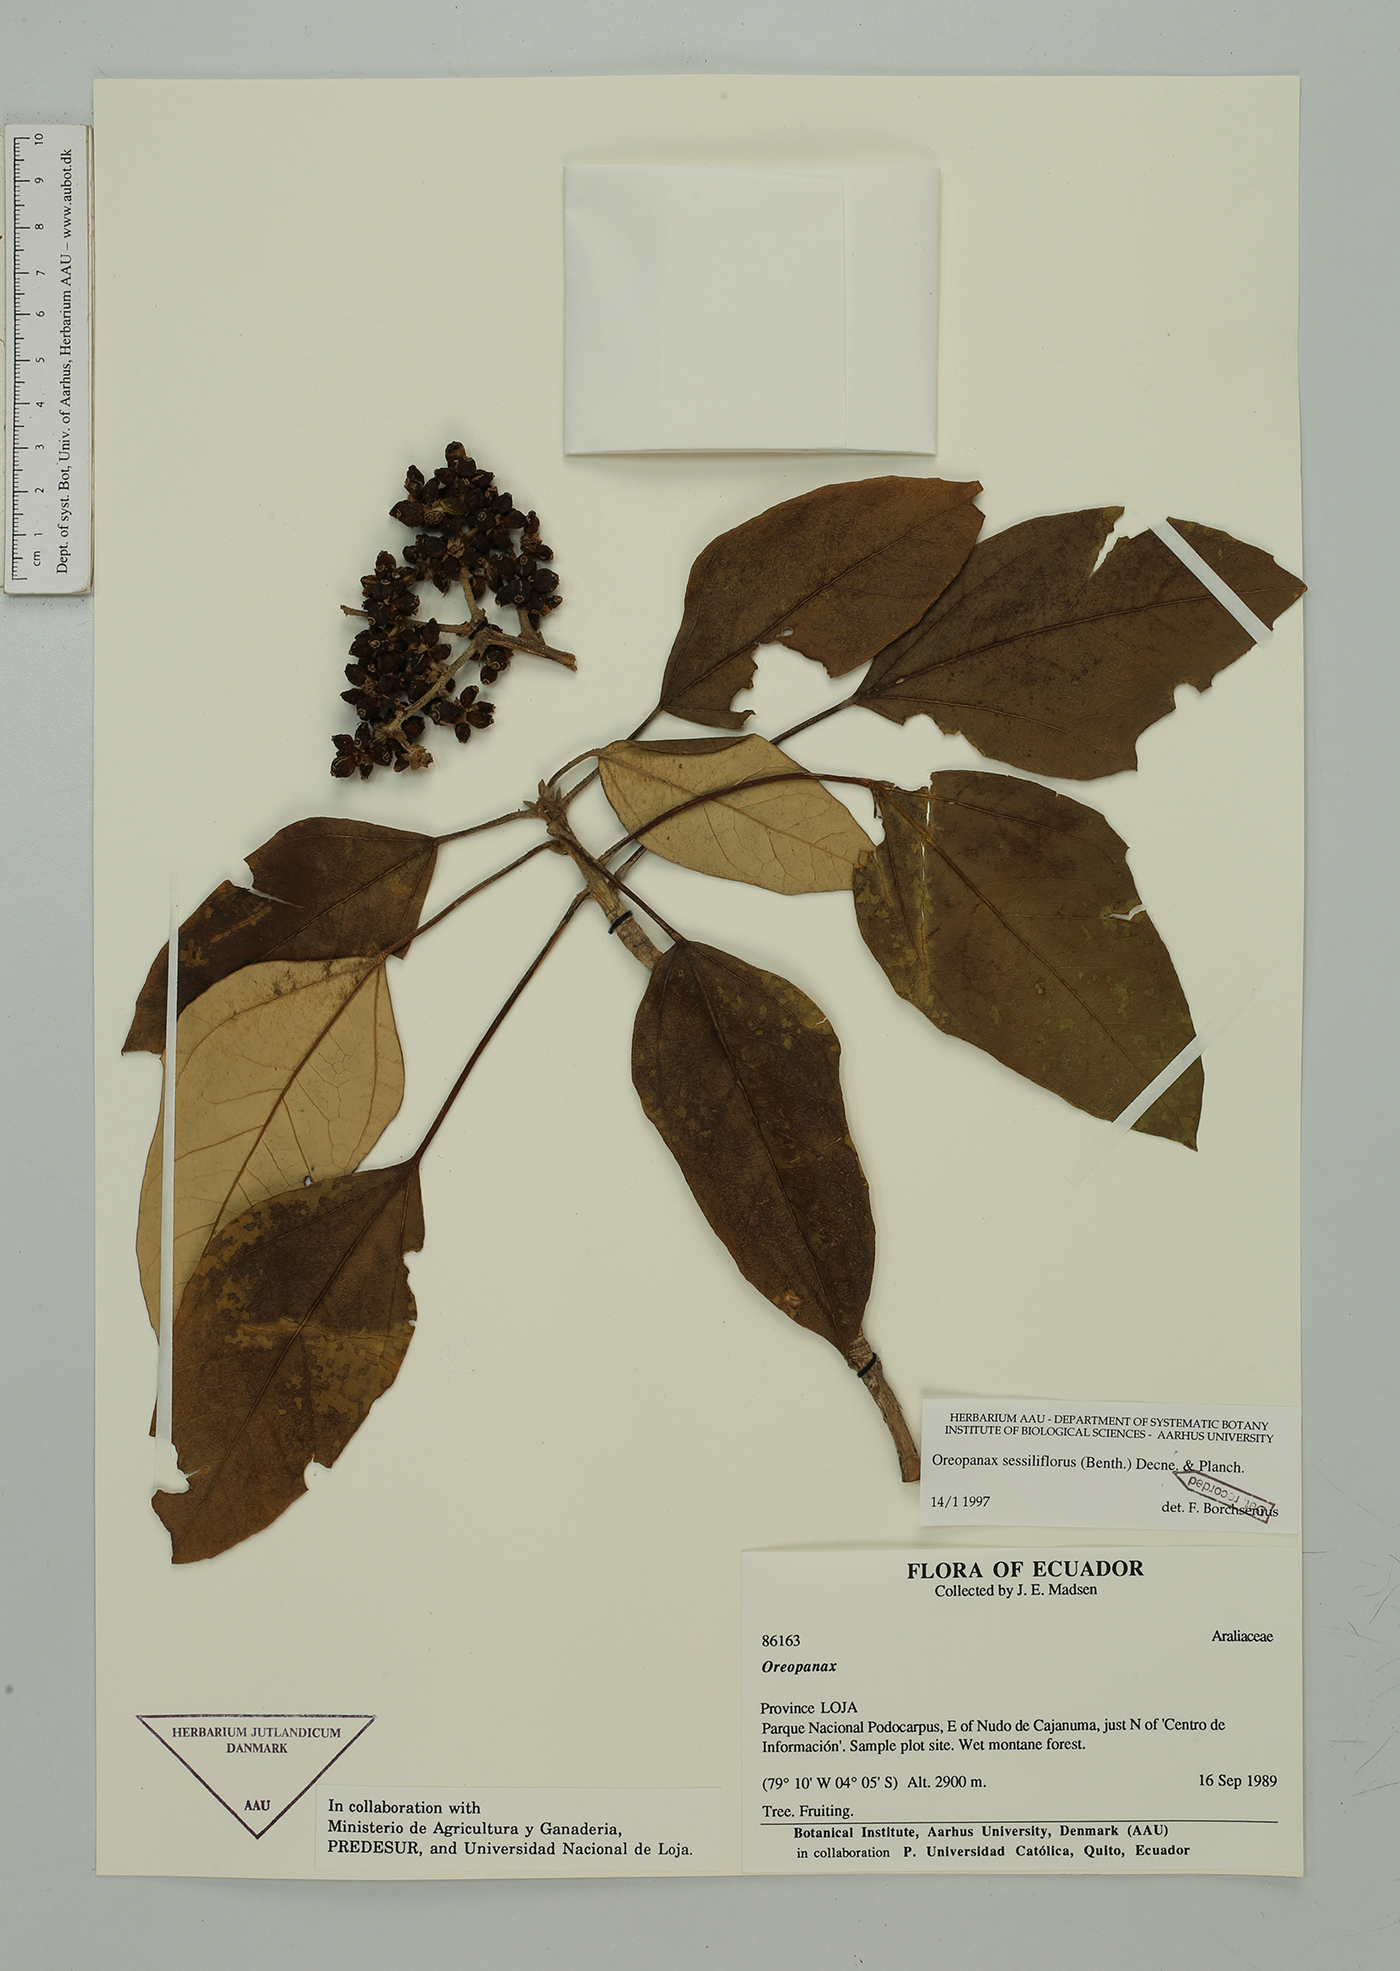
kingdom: Plantae
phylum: Tracheophyta
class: Magnoliopsida
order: Apiales
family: Araliaceae
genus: Oreopanax
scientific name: Oreopanax sessiliflorus
